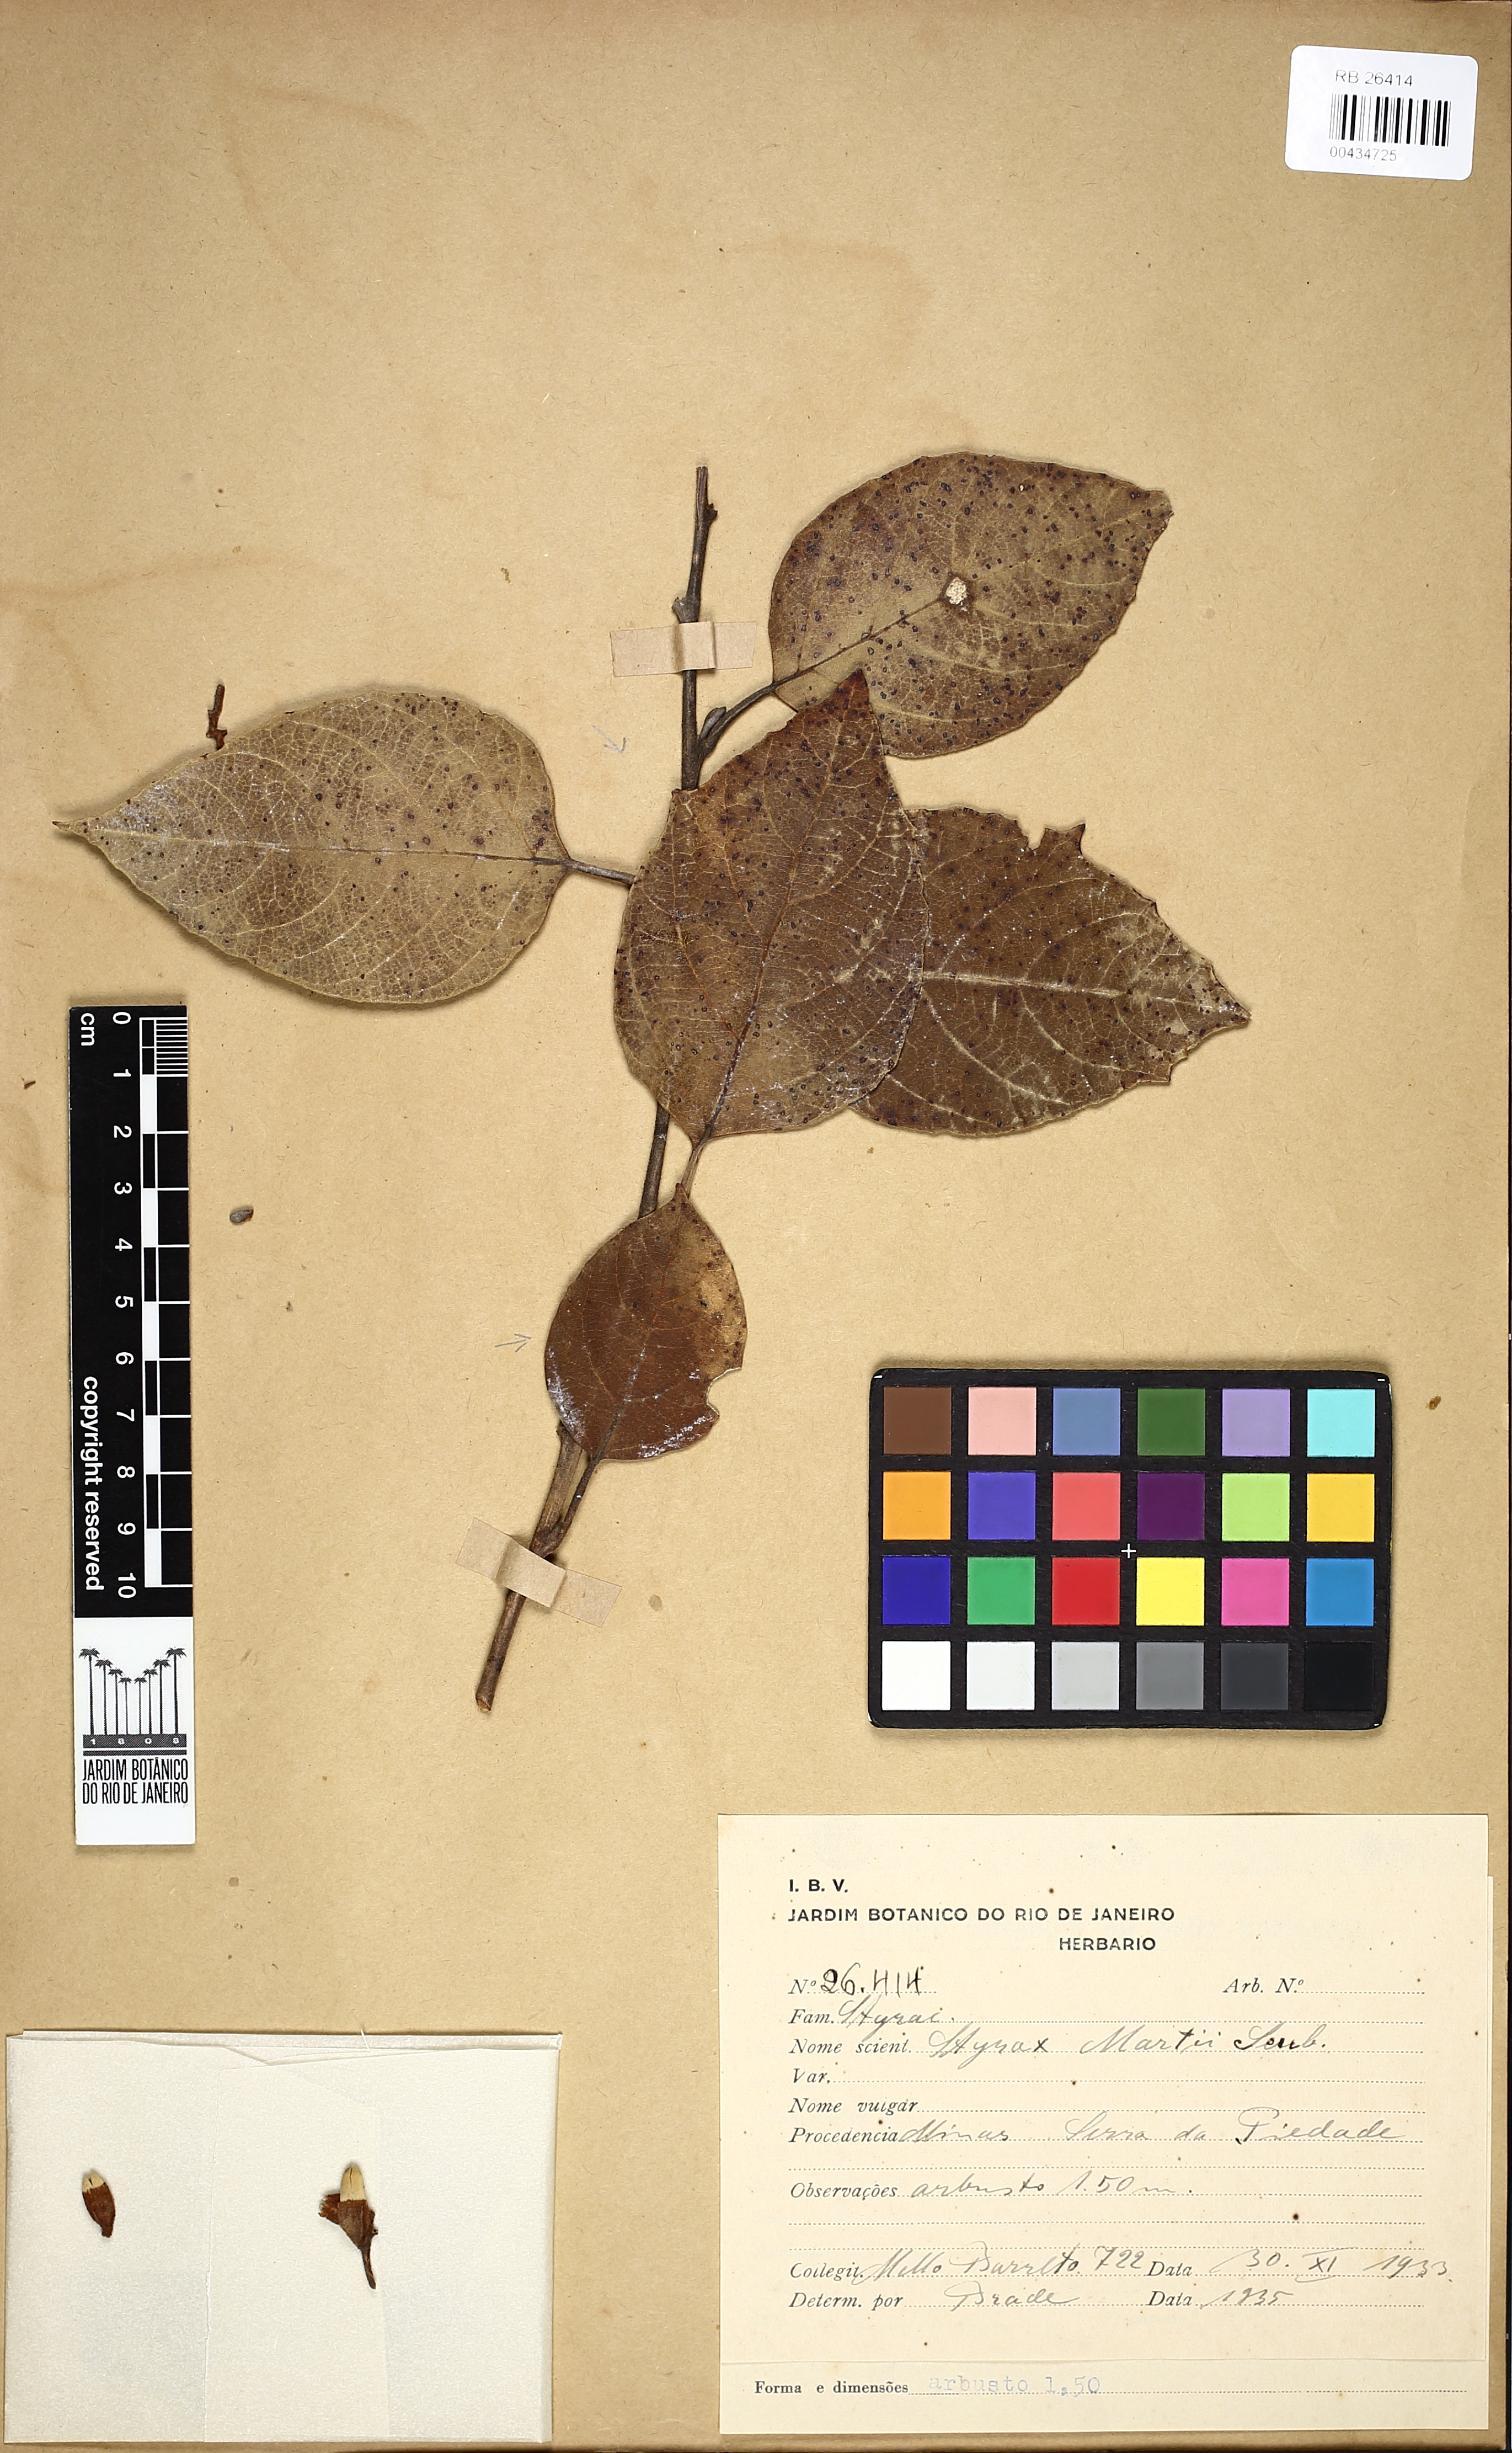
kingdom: Plantae
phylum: Tracheophyta
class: Magnoliopsida
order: Ericales
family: Styracaceae
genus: Styrax
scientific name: Styrax martii
